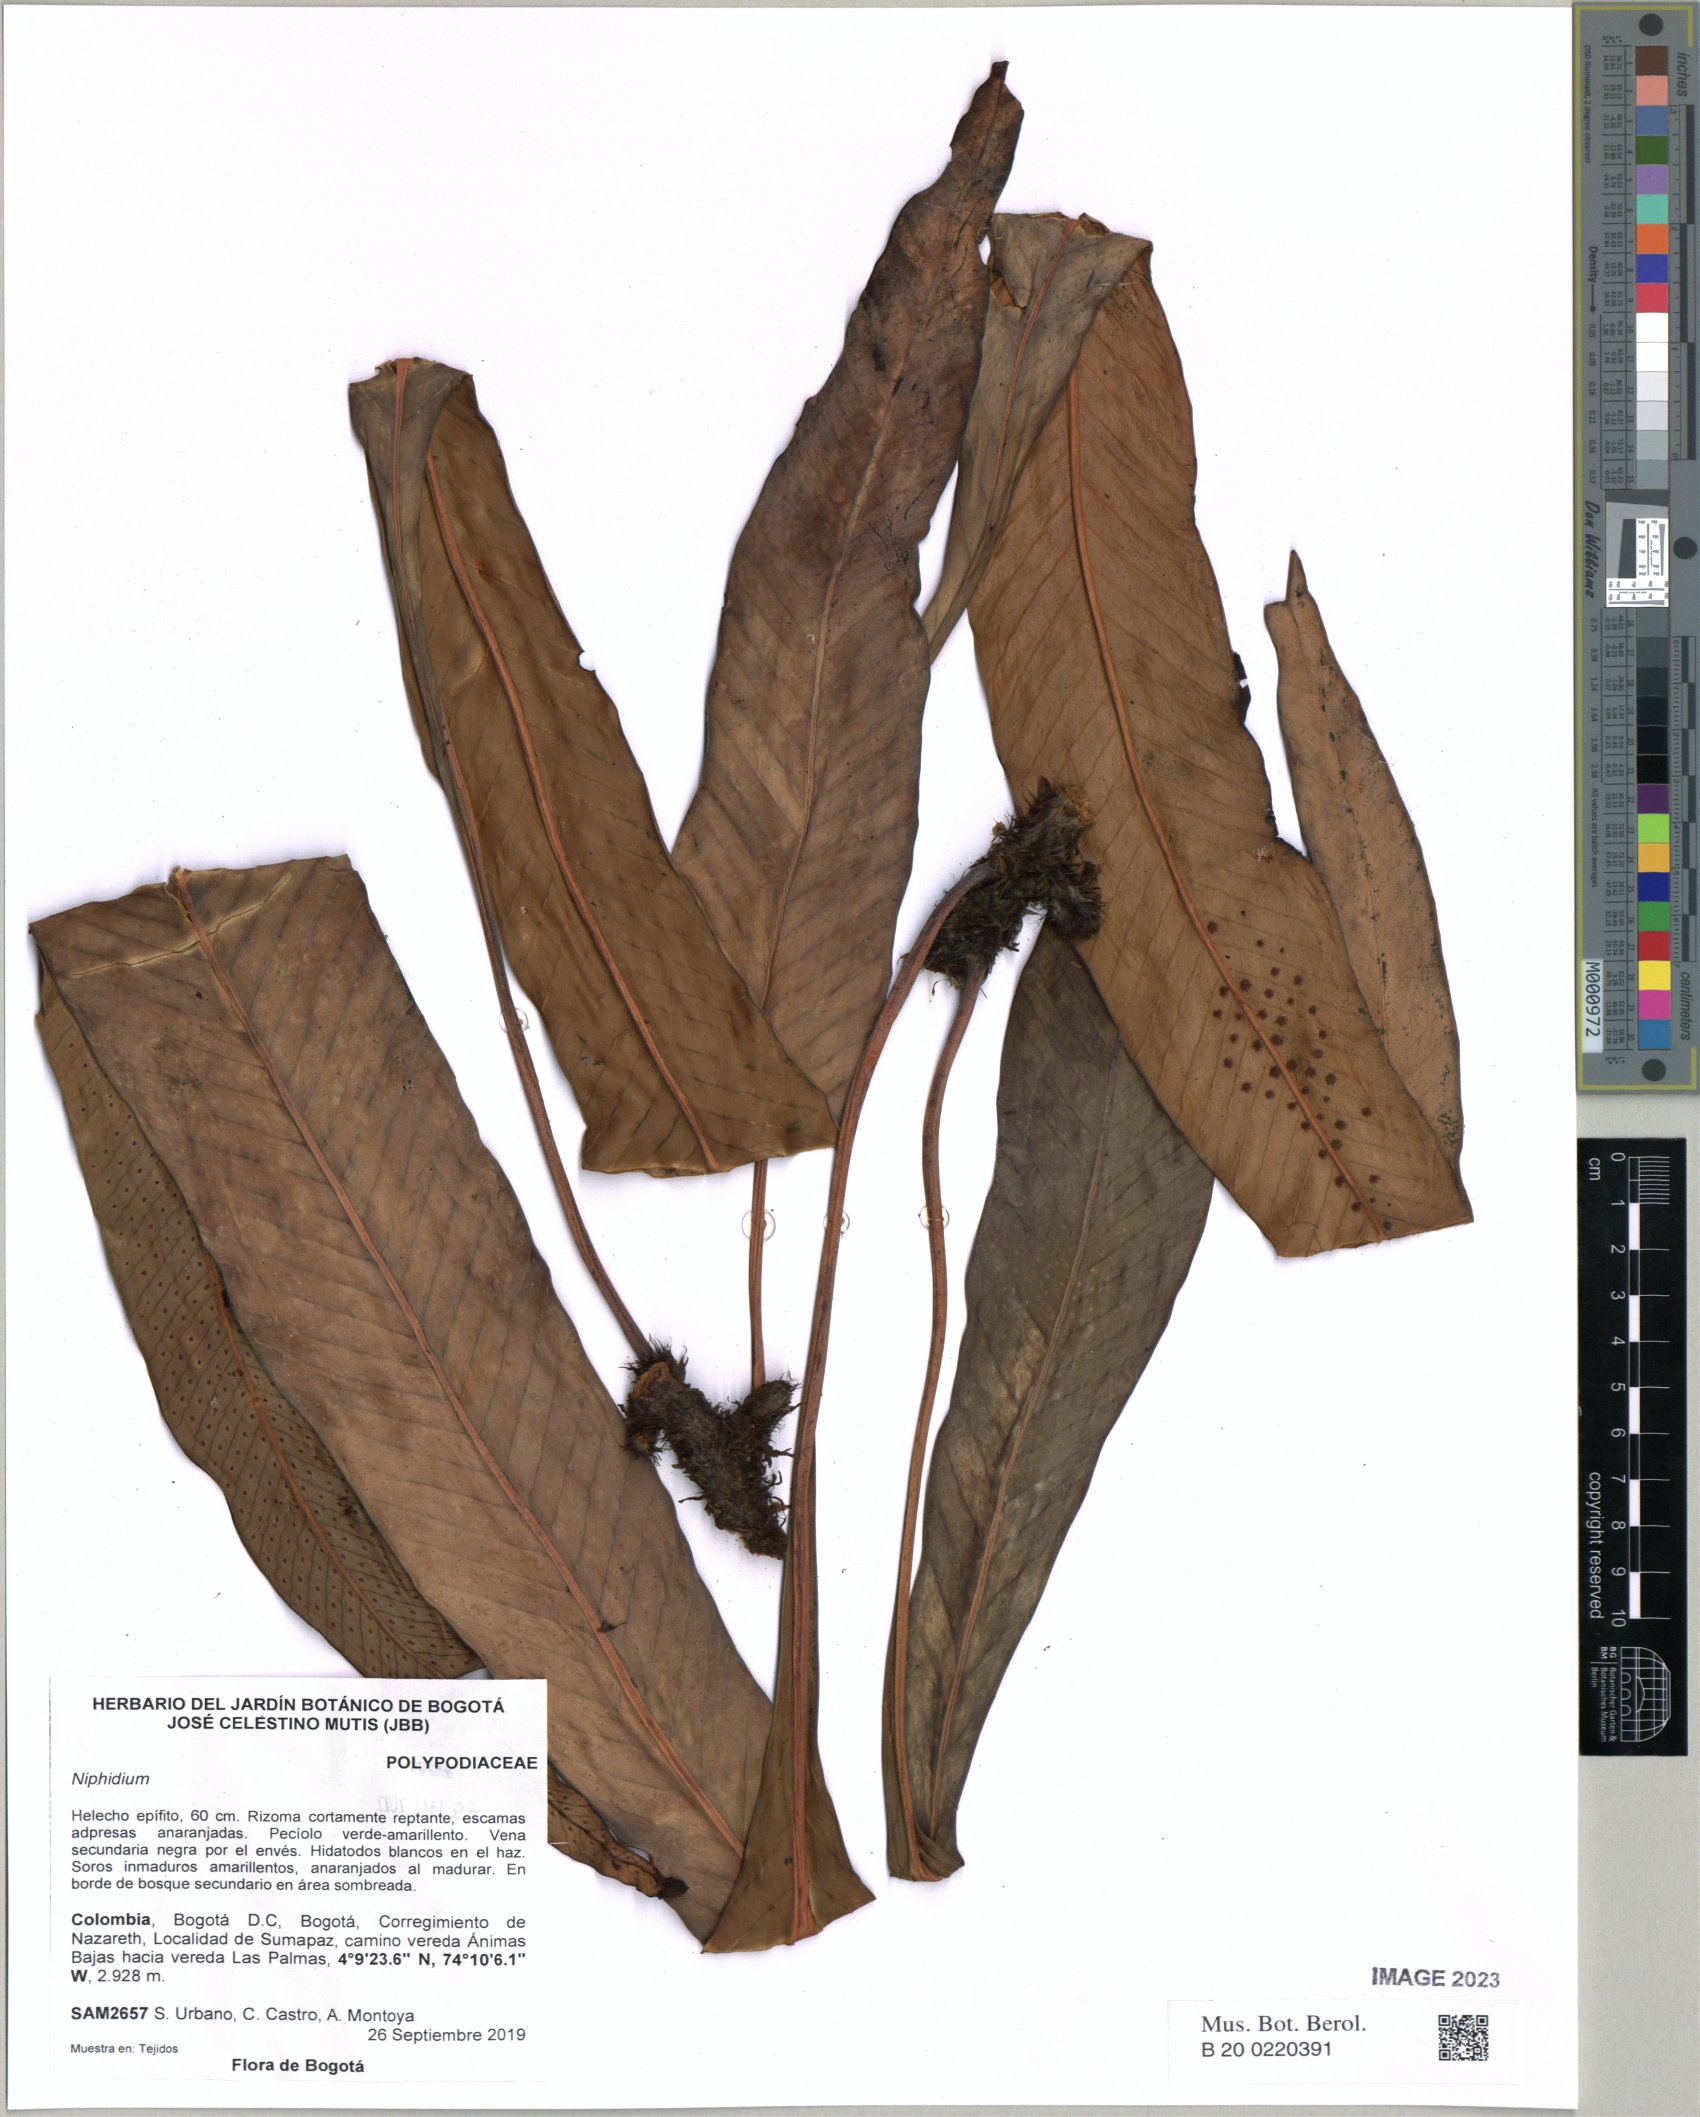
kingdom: Plantae
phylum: Tracheophyta
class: Polypodiopsida
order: Polypodiales
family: Polypodiaceae
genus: Niphidium
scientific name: Niphidium
